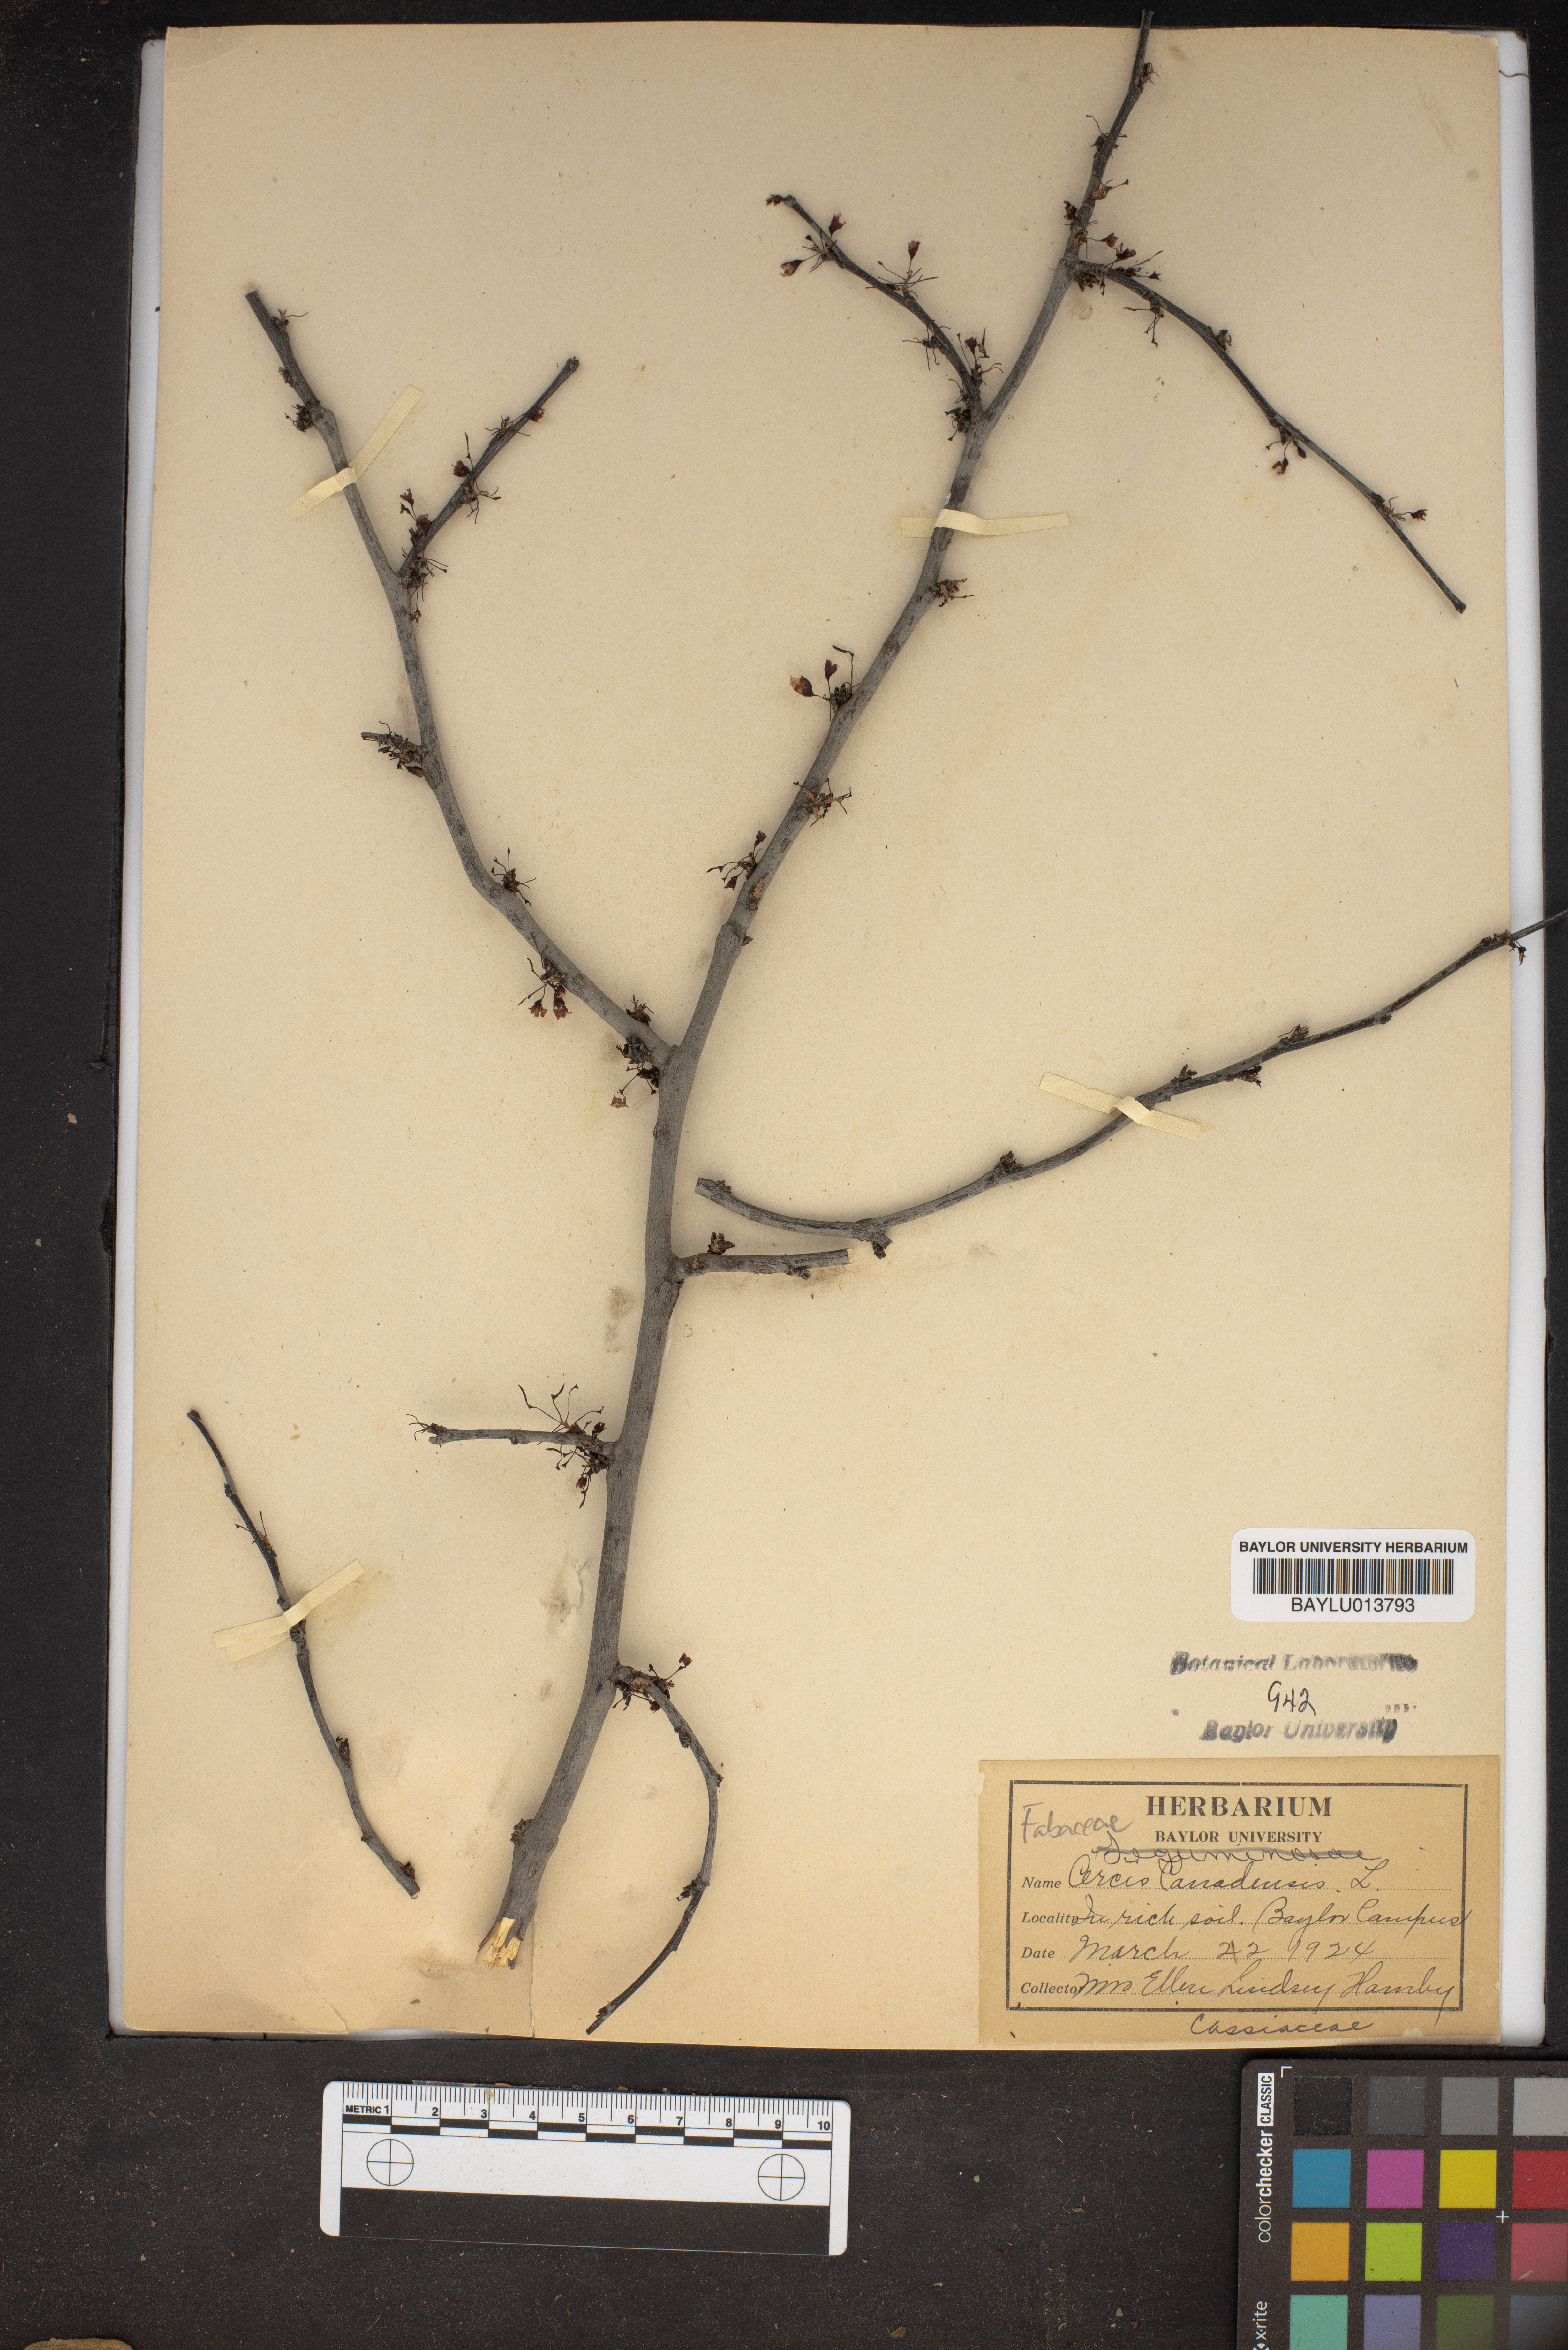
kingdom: Plantae
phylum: Tracheophyta
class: Magnoliopsida
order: Fabales
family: Fabaceae
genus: Cercis
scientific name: Cercis canadensis
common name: Eastern redbud
